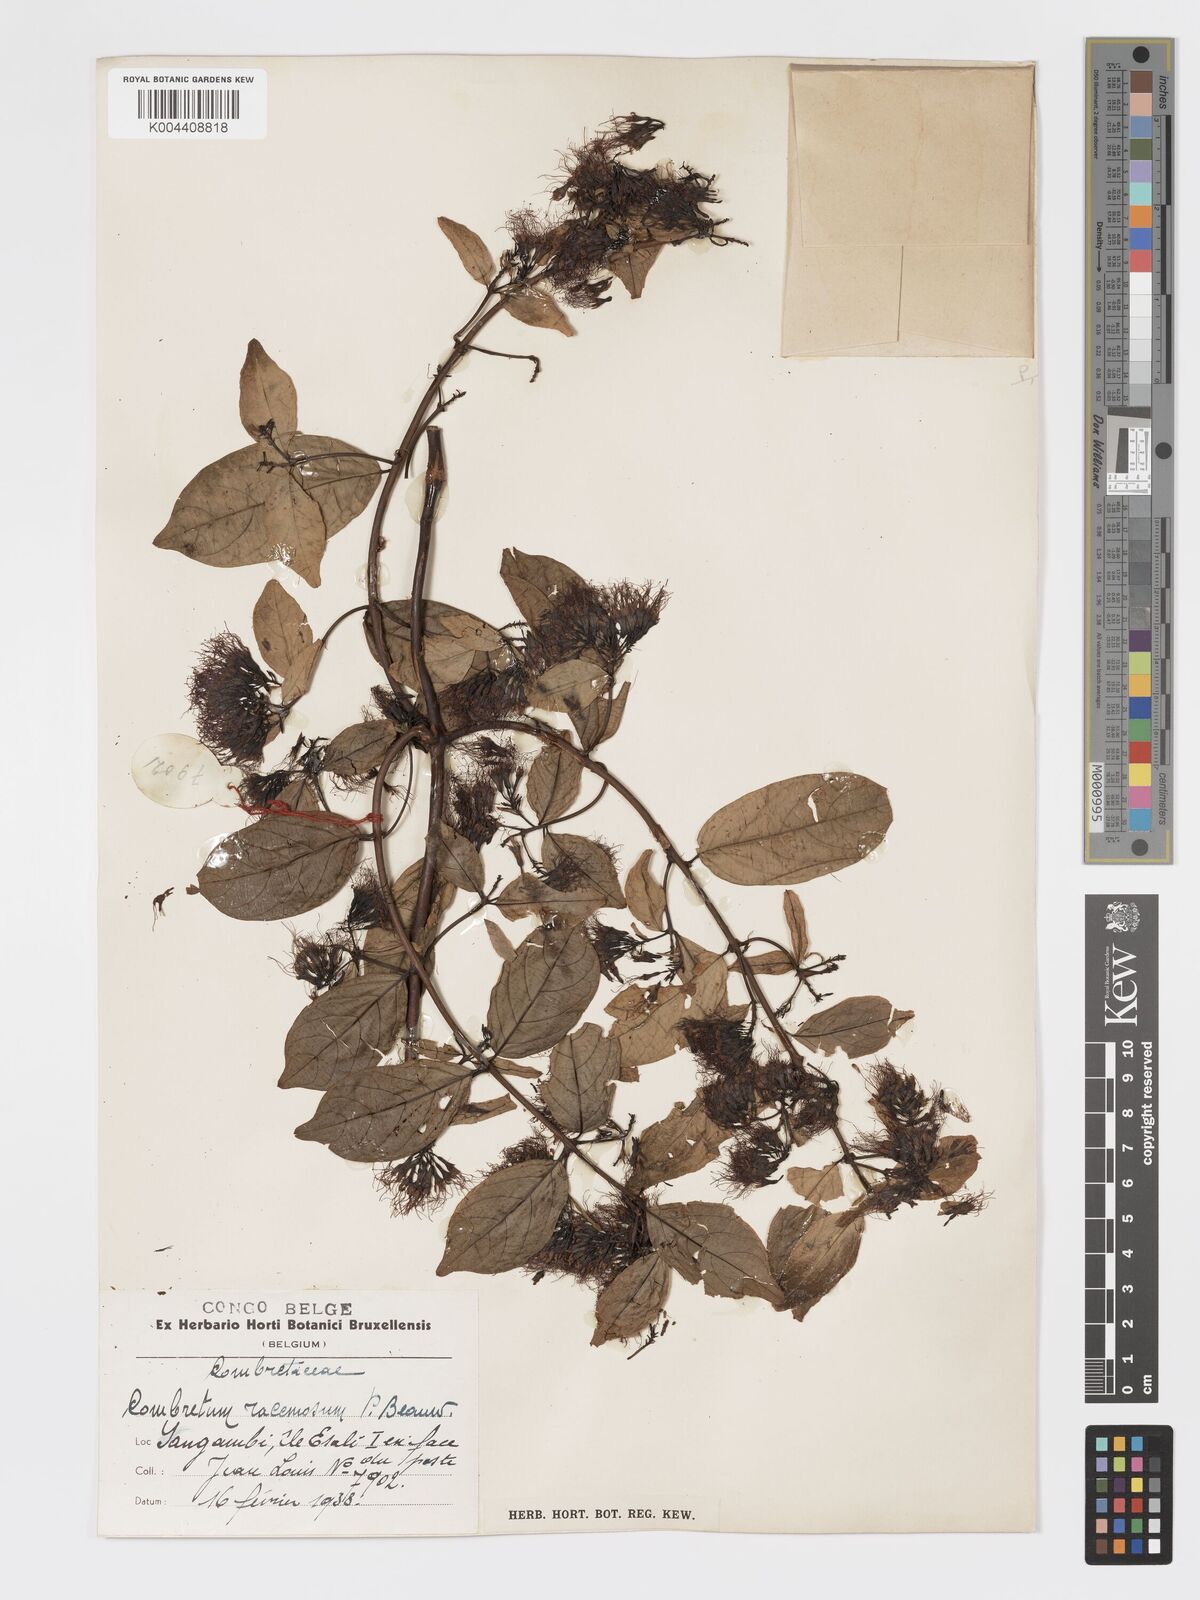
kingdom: Plantae
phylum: Tracheophyta
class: Magnoliopsida
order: Myrtales
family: Combretaceae
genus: Combretum
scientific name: Combretum racemosum
